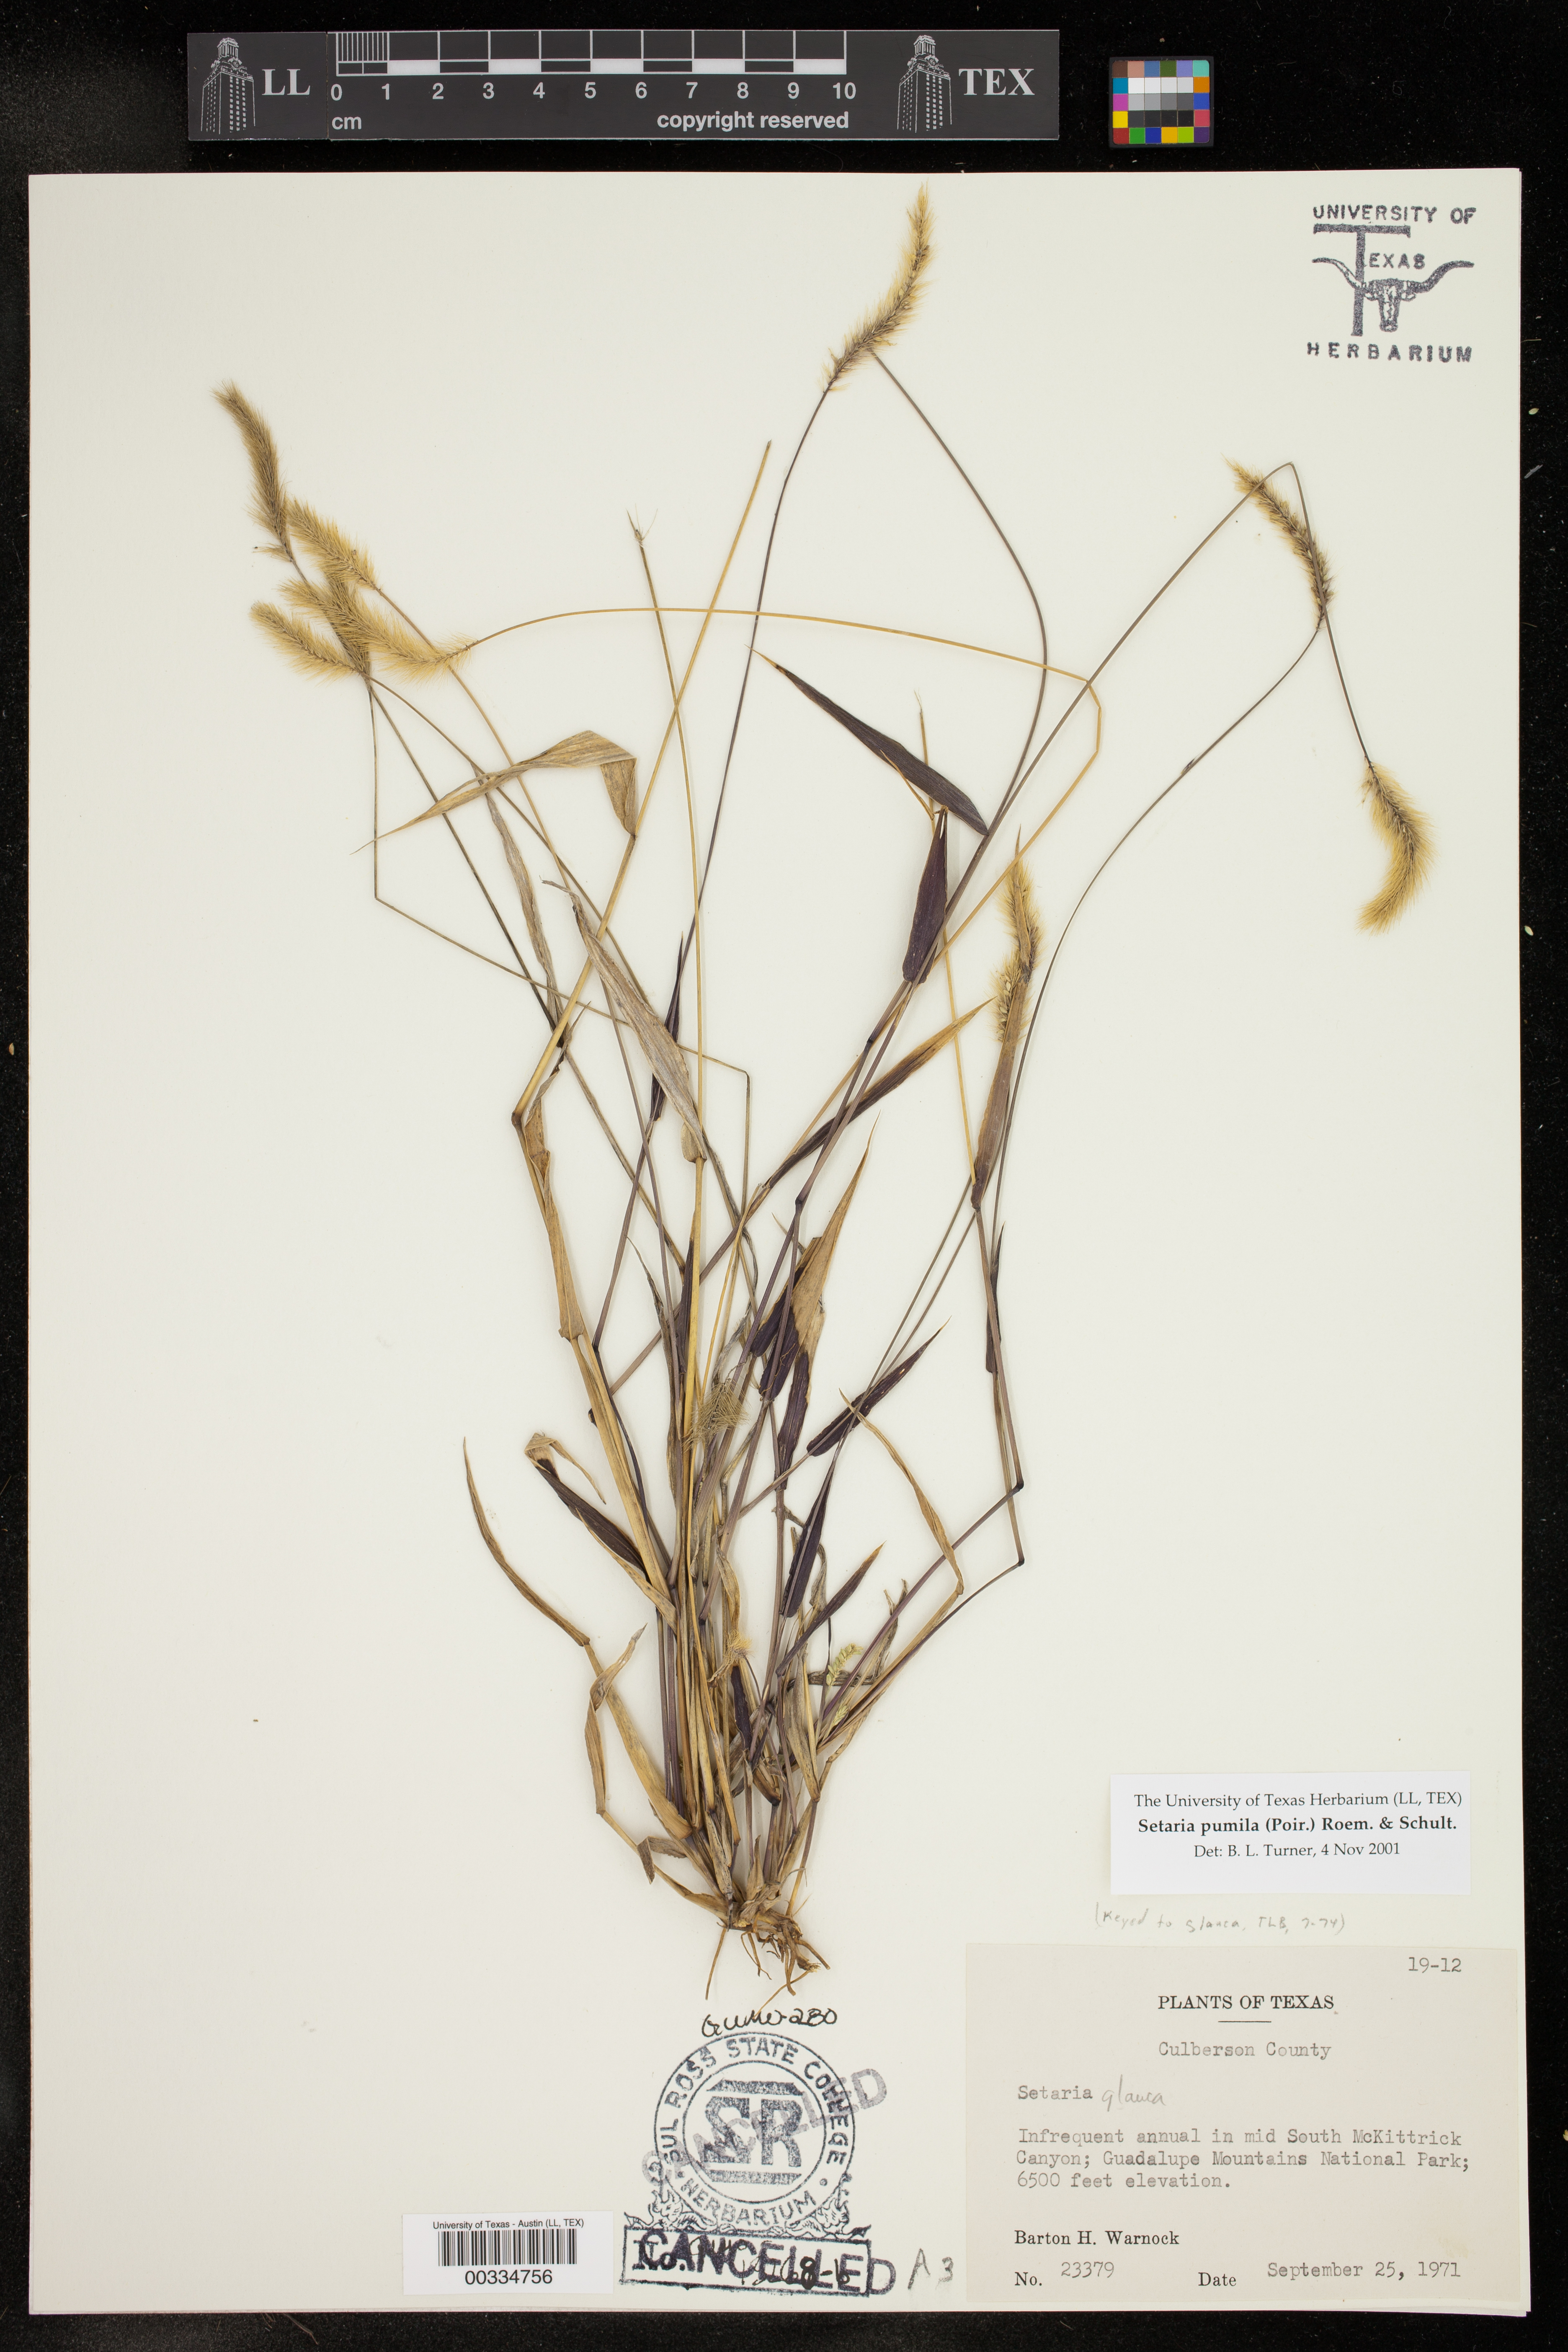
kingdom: Plantae
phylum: Tracheophyta
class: Liliopsida
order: Poales
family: Poaceae
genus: Setaria
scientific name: Setaria pumila
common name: Yellow bristle-grass
